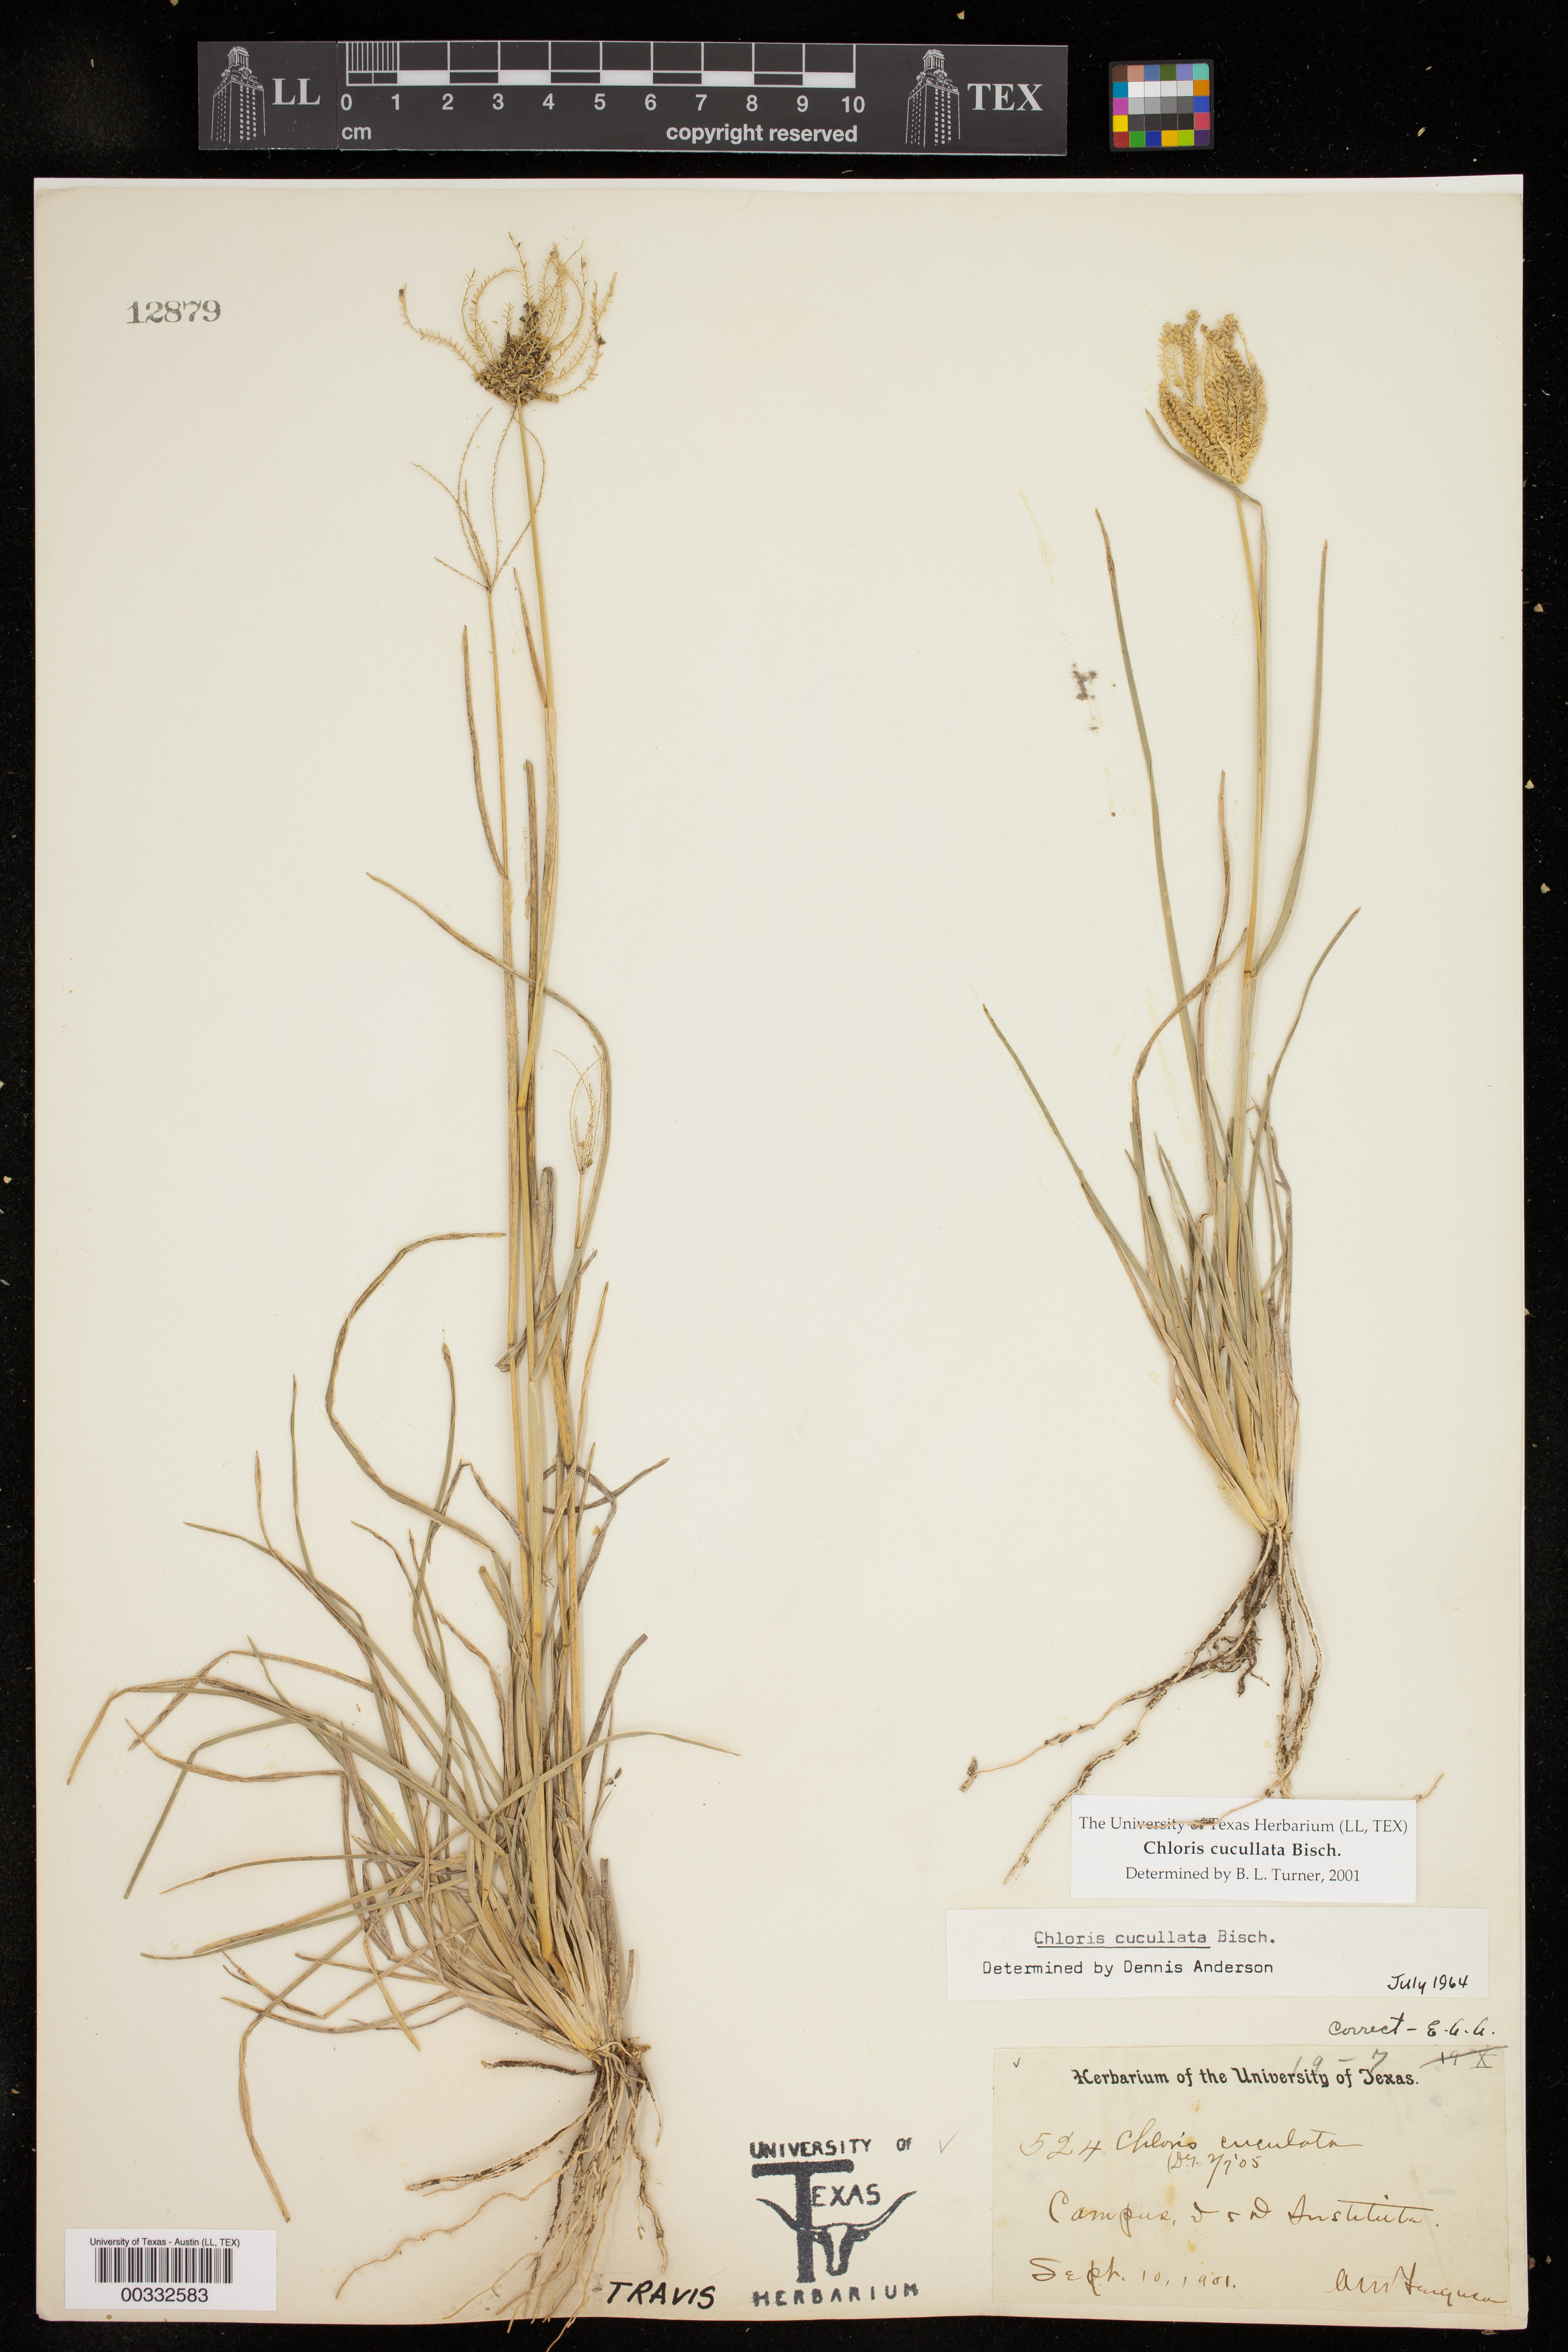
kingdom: Plantae
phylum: Tracheophyta
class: Liliopsida
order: Poales
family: Poaceae
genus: Chloris
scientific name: Chloris cucullata
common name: Hooded windmill grass
